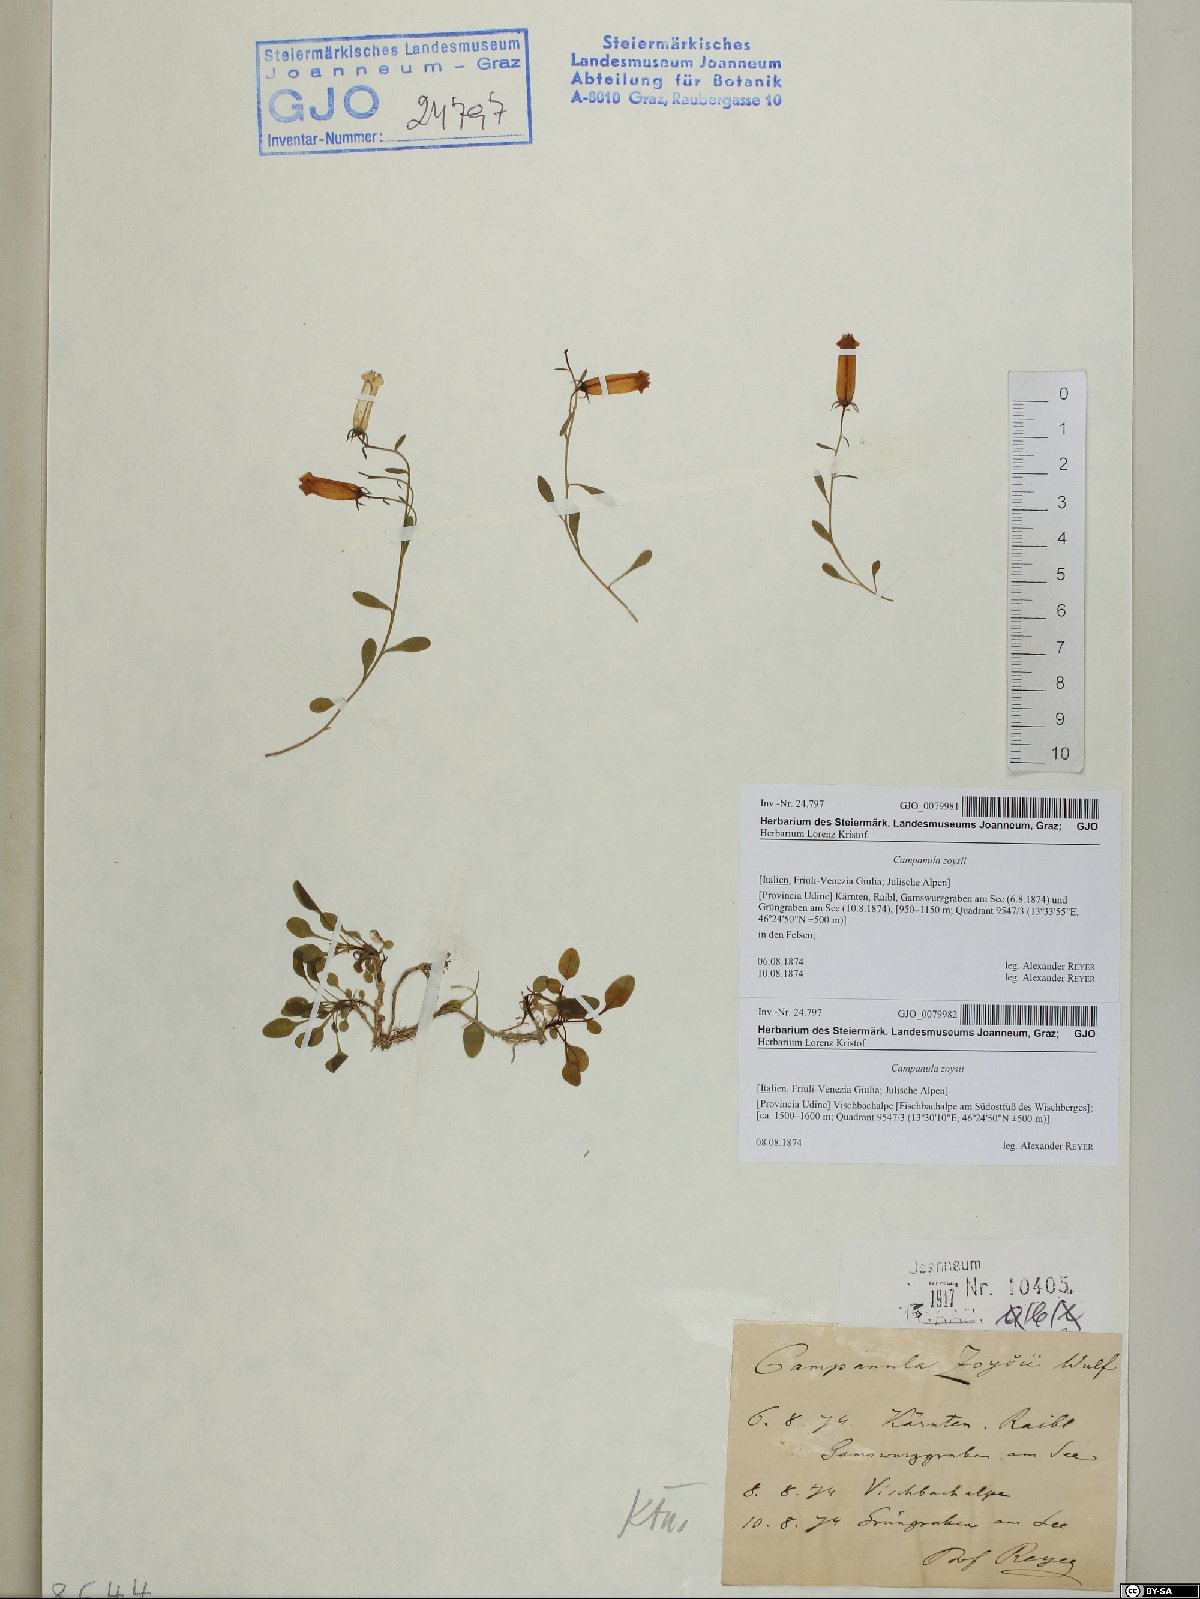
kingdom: Plantae
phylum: Tracheophyta
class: Magnoliopsida
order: Asterales
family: Campanulaceae
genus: Favratia
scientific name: Favratia zoysii
